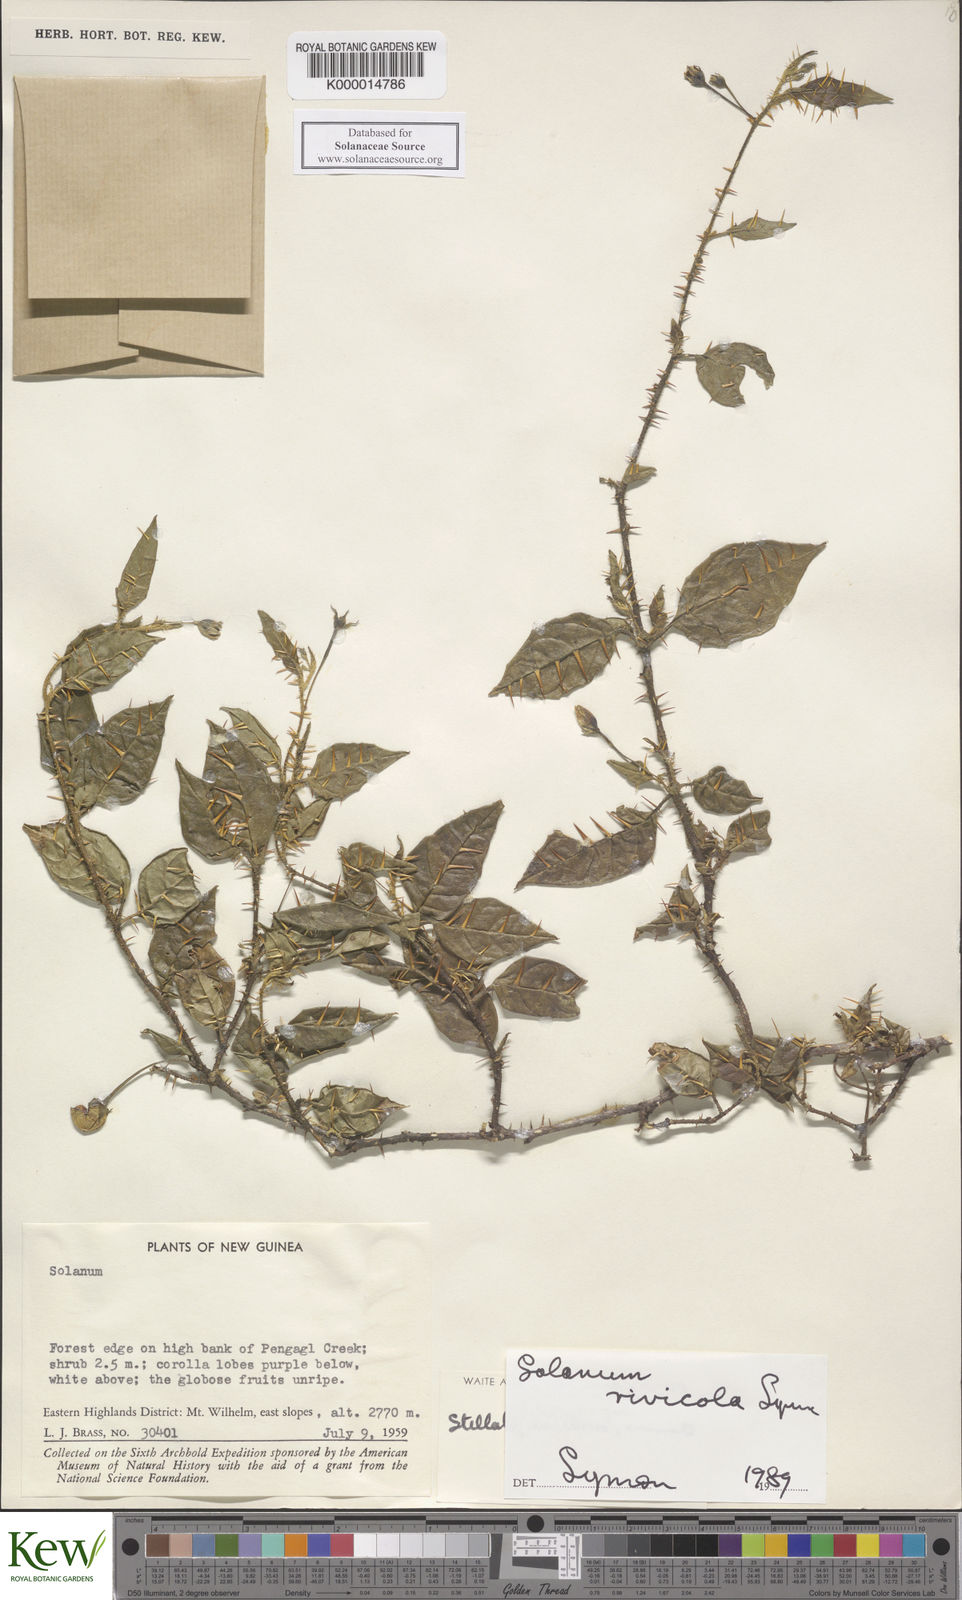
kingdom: Plantae
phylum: Tracheophyta
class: Magnoliopsida
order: Solanales
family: Solanaceae
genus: Solanum
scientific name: Solanum phoberum
